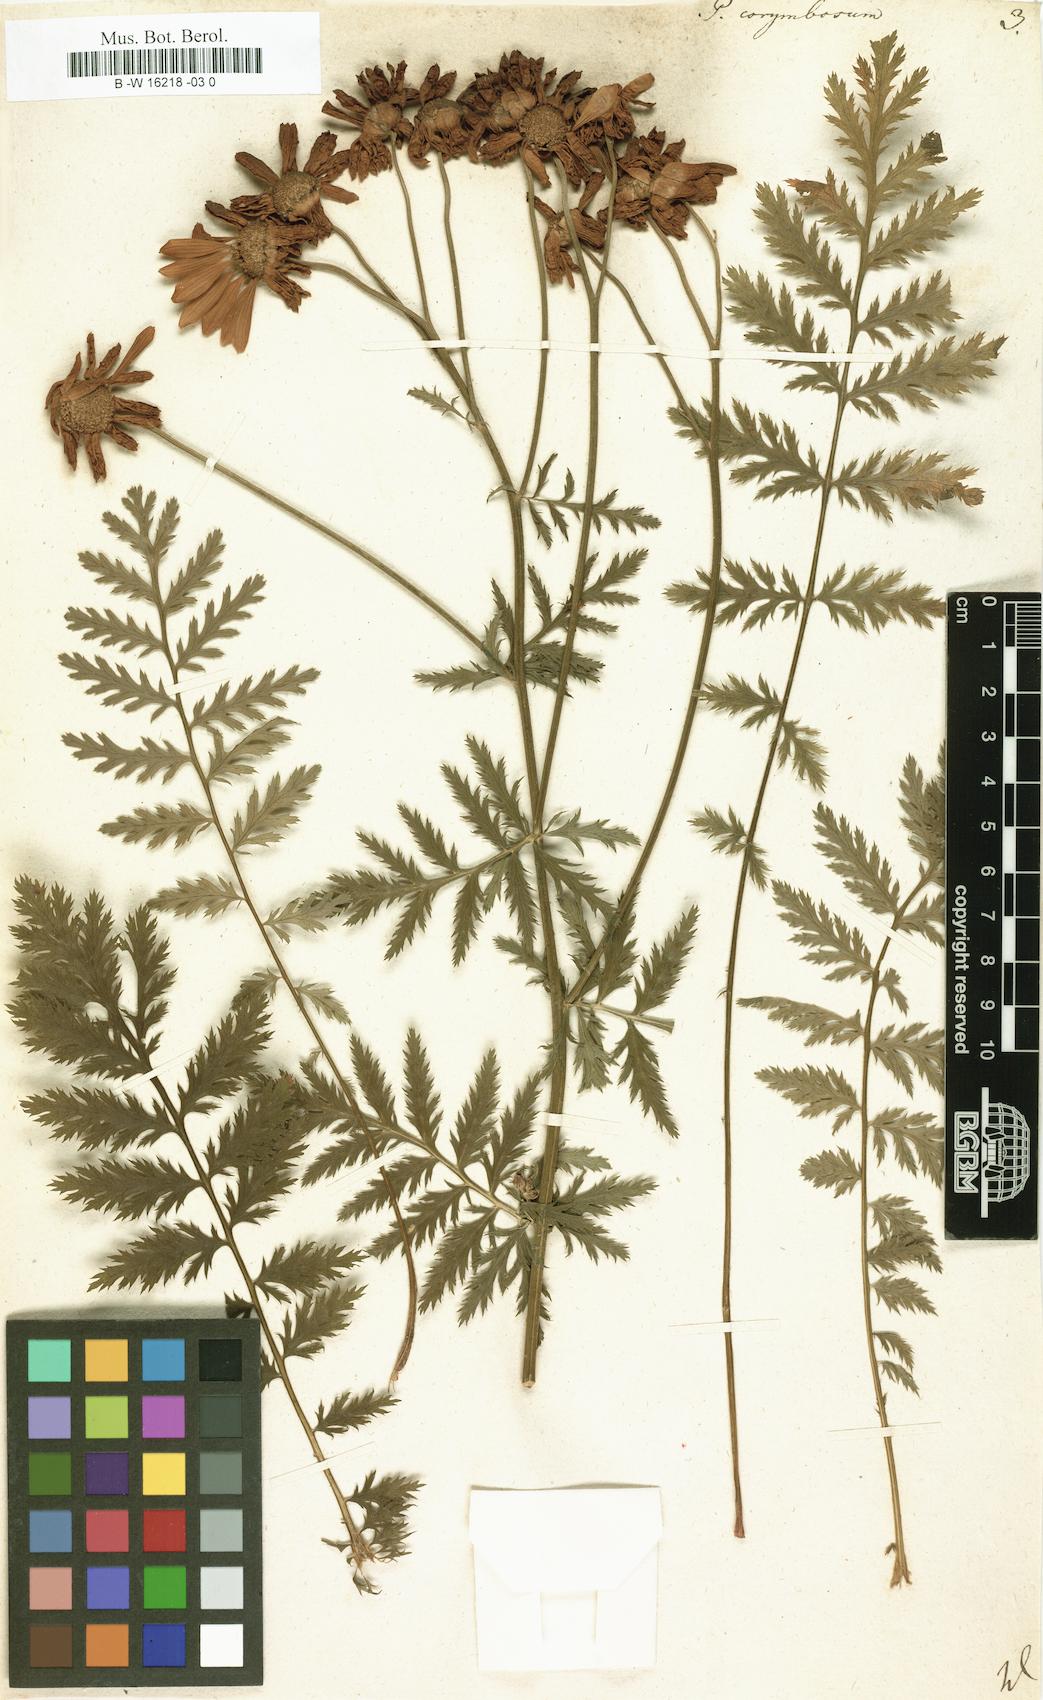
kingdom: Plantae
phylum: Tracheophyta
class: Magnoliopsida
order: Asterales
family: Asteraceae
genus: Acmella
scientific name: Acmella Pyrethrum corymbosum
